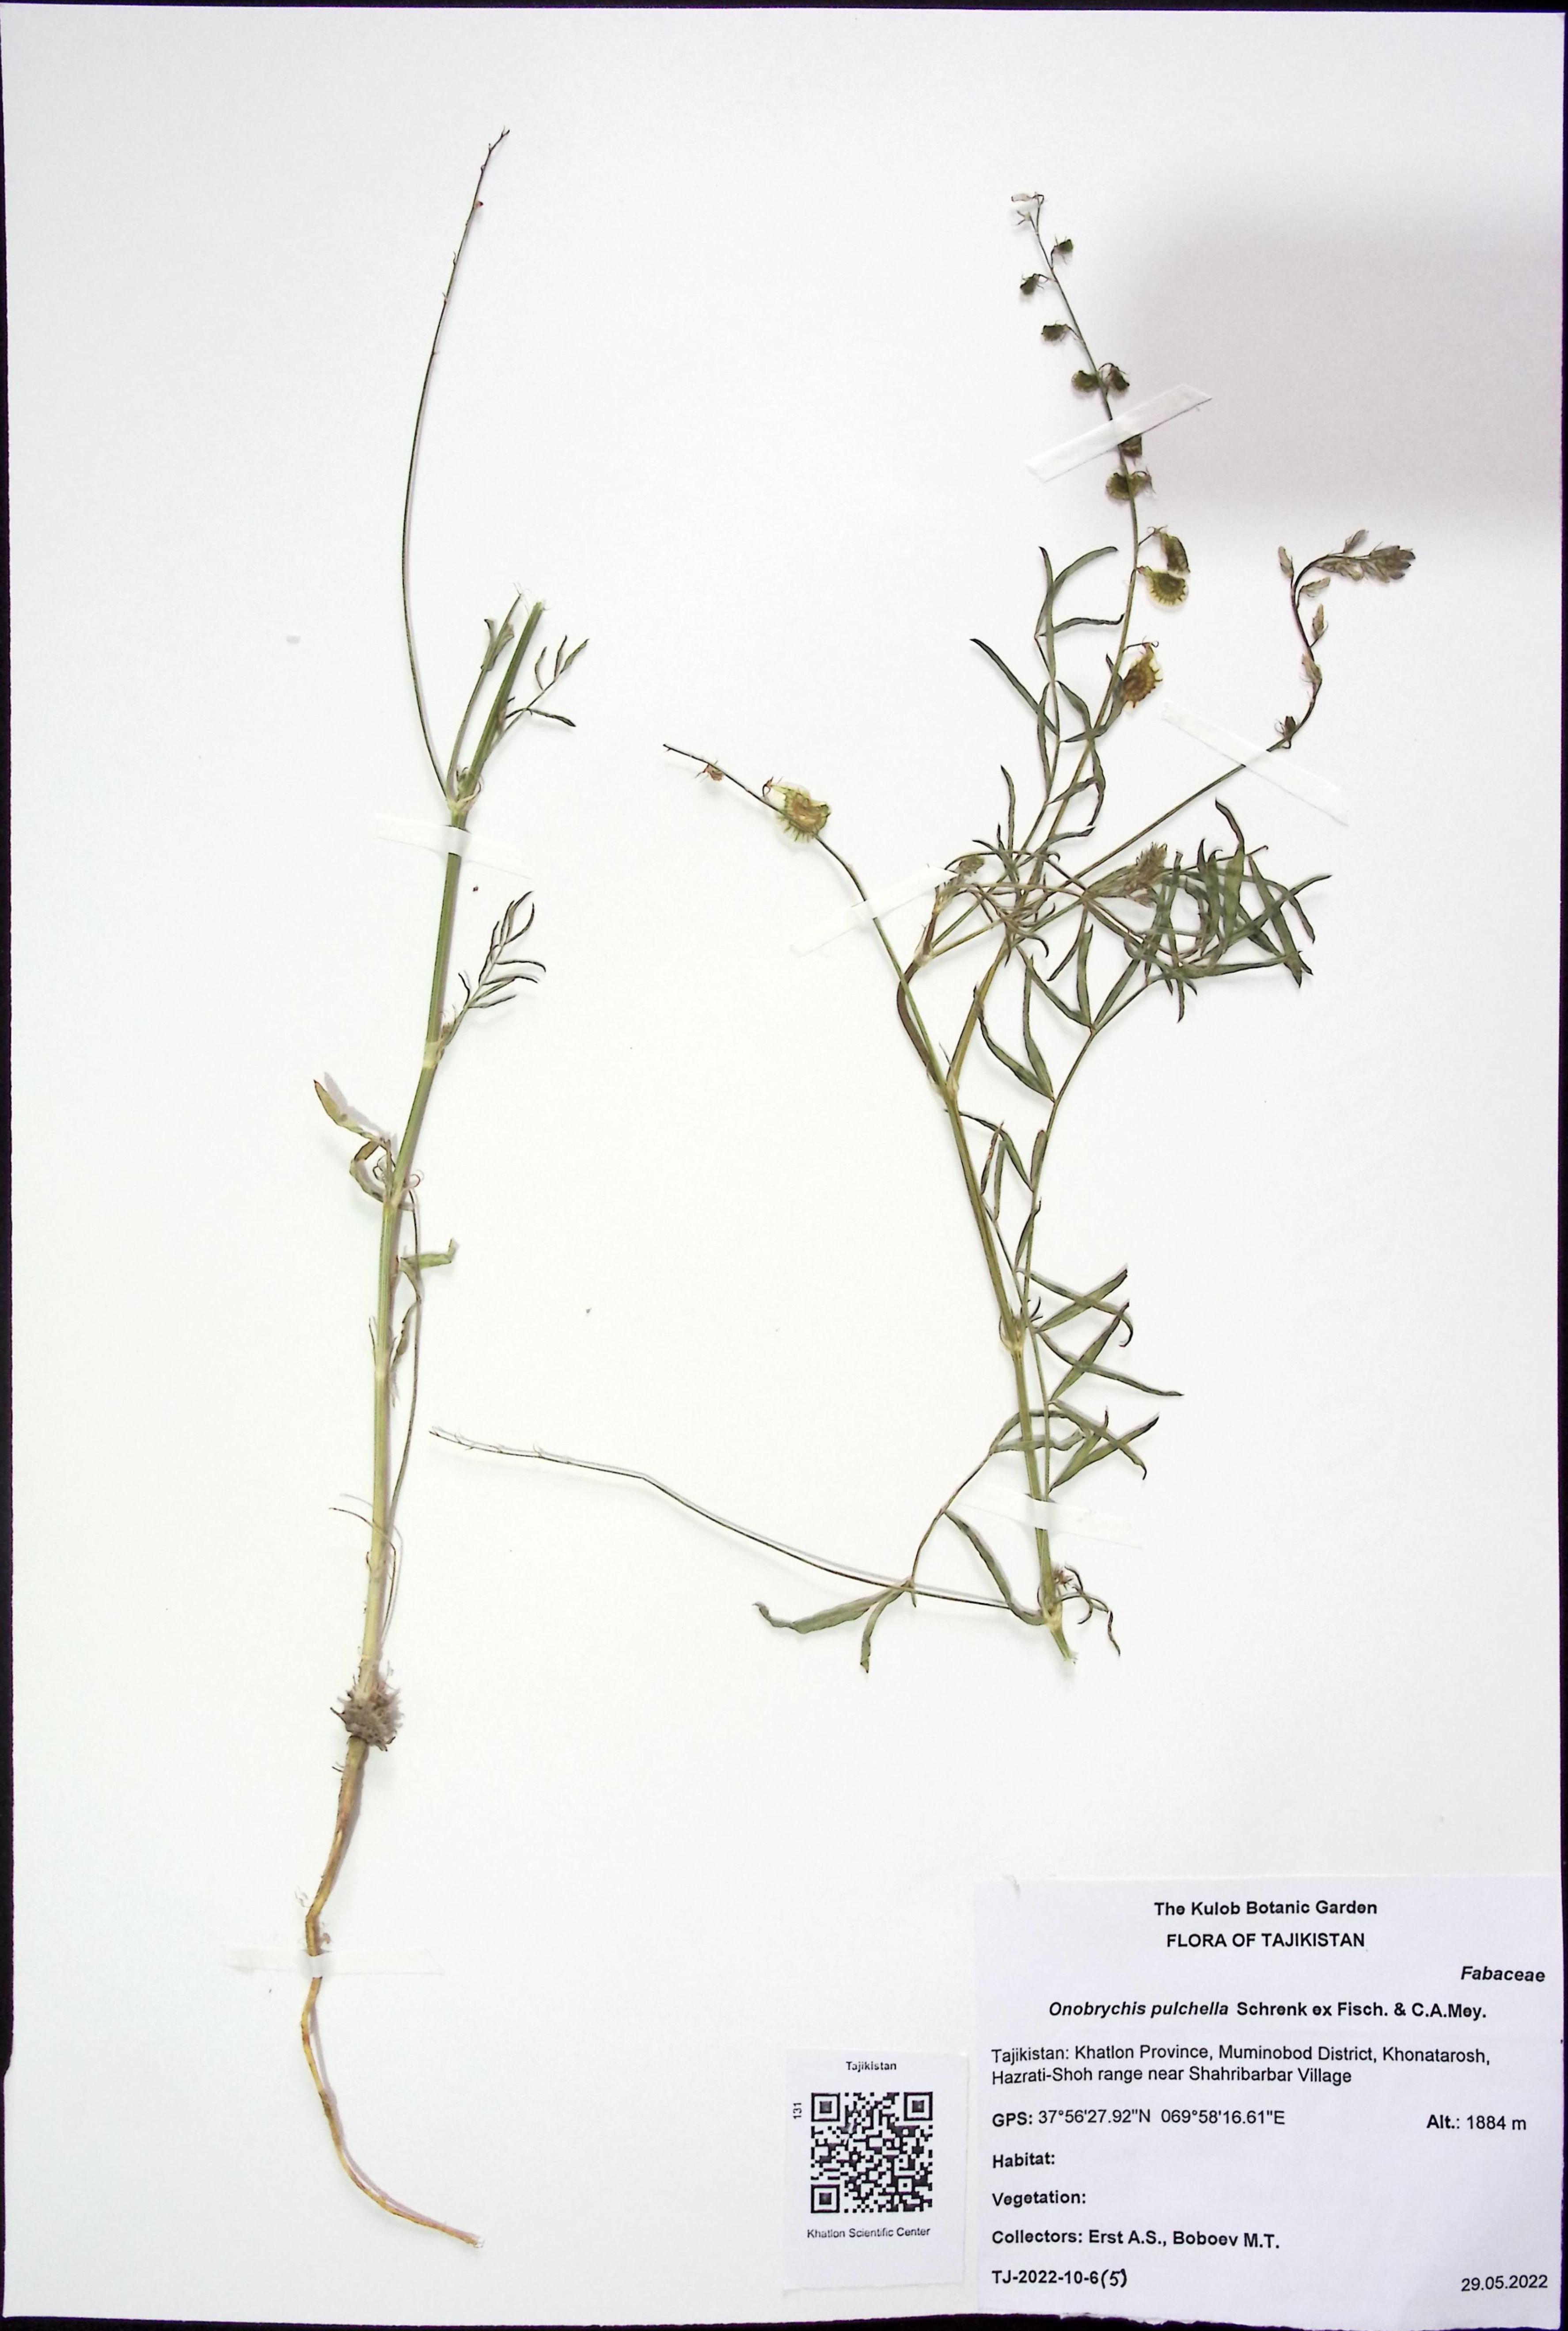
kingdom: Plantae
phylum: Tracheophyta
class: Magnoliopsida
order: Fabales
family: Fabaceae
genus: Onobrychis
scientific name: Onobrychis pulchella
